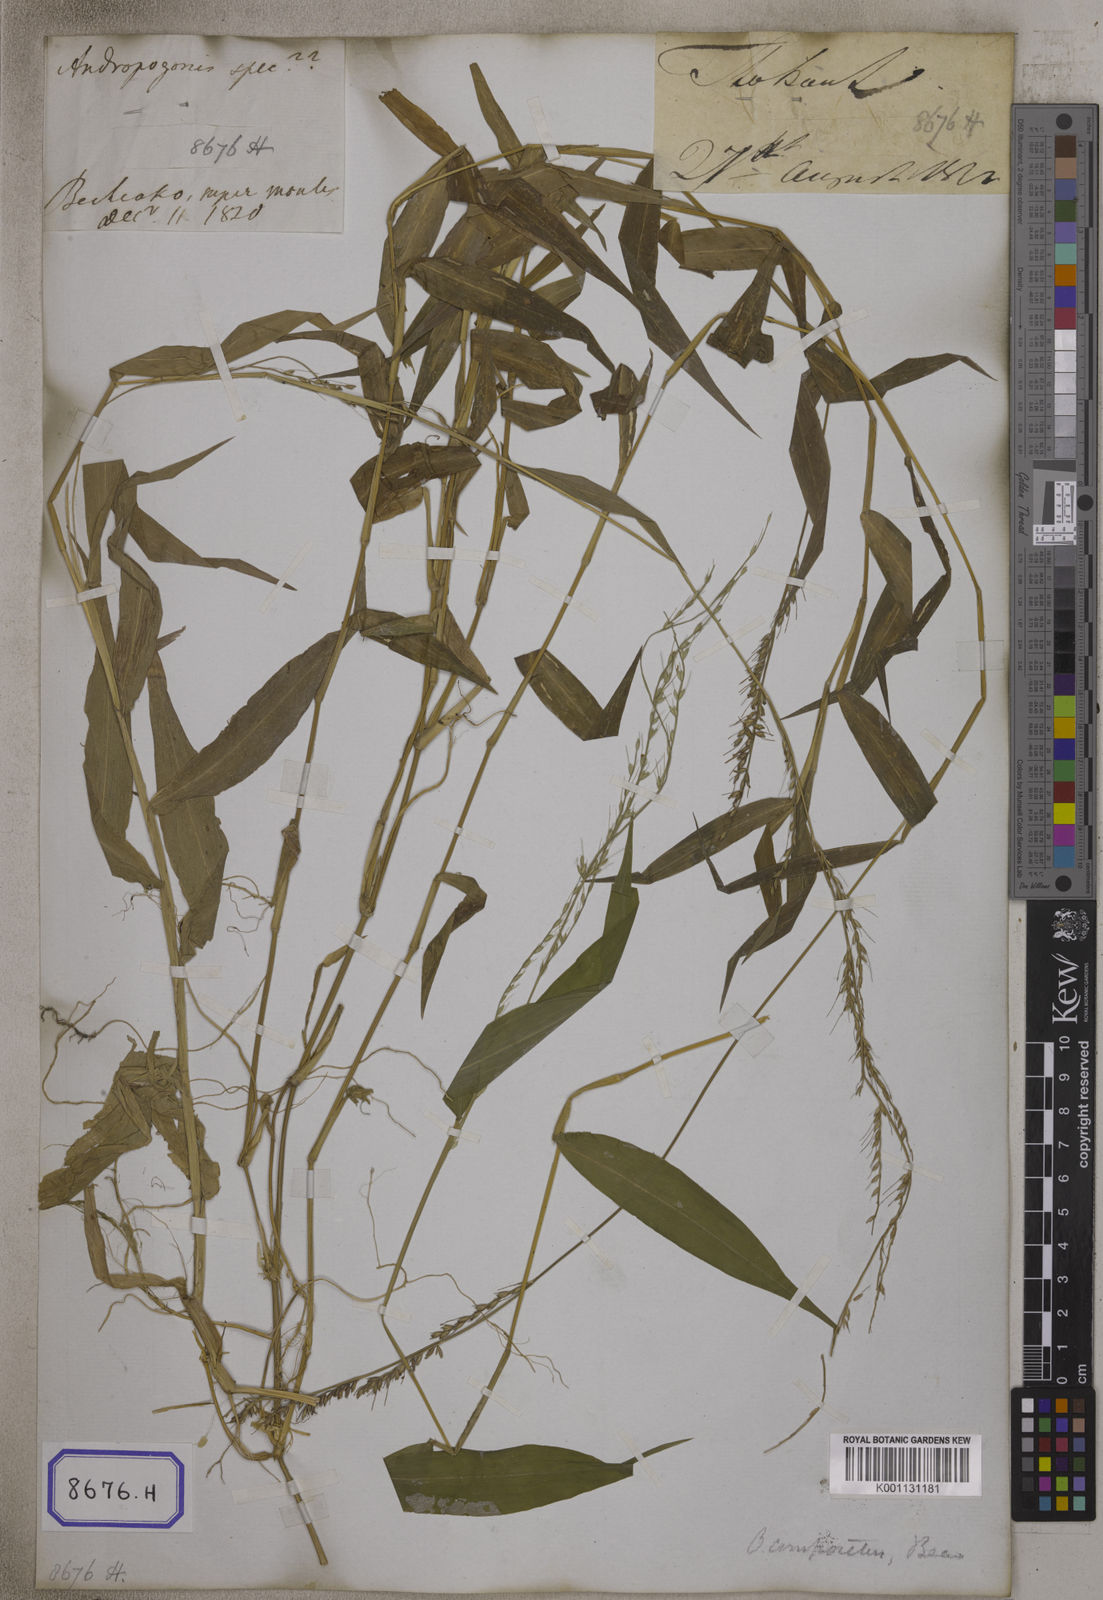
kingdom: Plantae
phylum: Tracheophyta
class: Liliopsida
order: Poales
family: Poaceae
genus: Oplismenus
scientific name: Oplismenus compositus
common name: Running mountain grass
